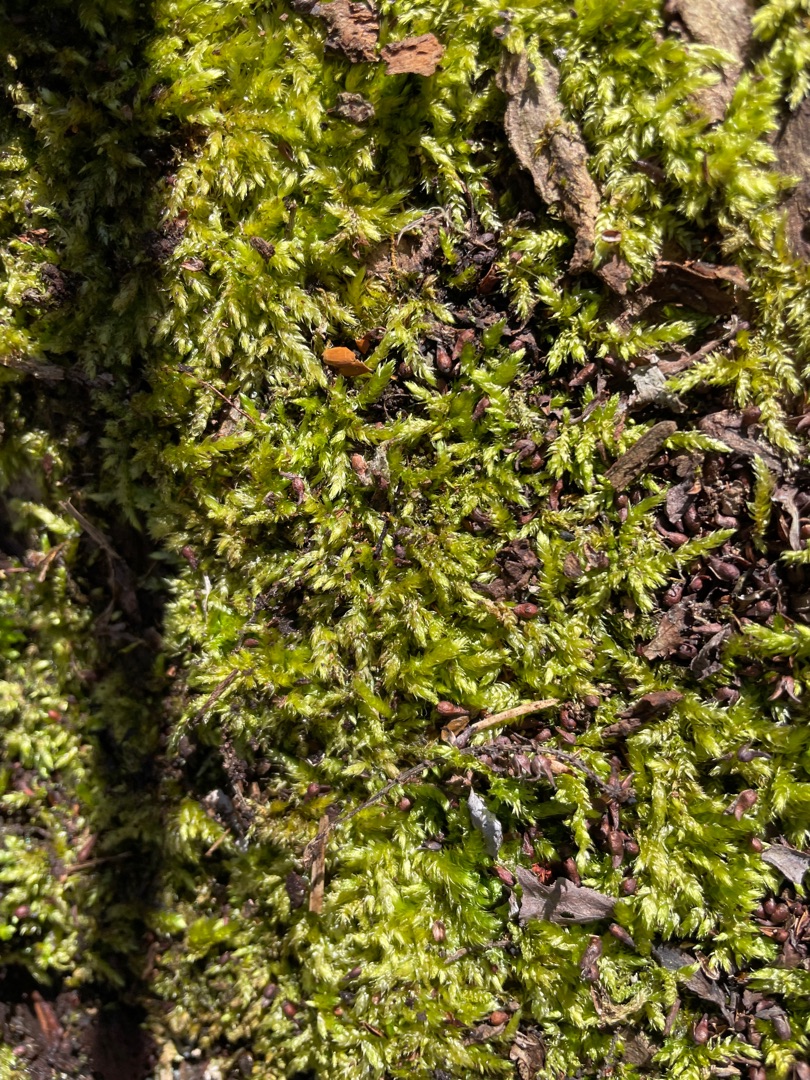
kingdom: Plantae
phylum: Bryophyta
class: Bryopsida
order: Hypnales
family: Brachytheciaceae
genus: Brachythecium
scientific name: Brachythecium rutabulum
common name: Almindelig kortkapsel
